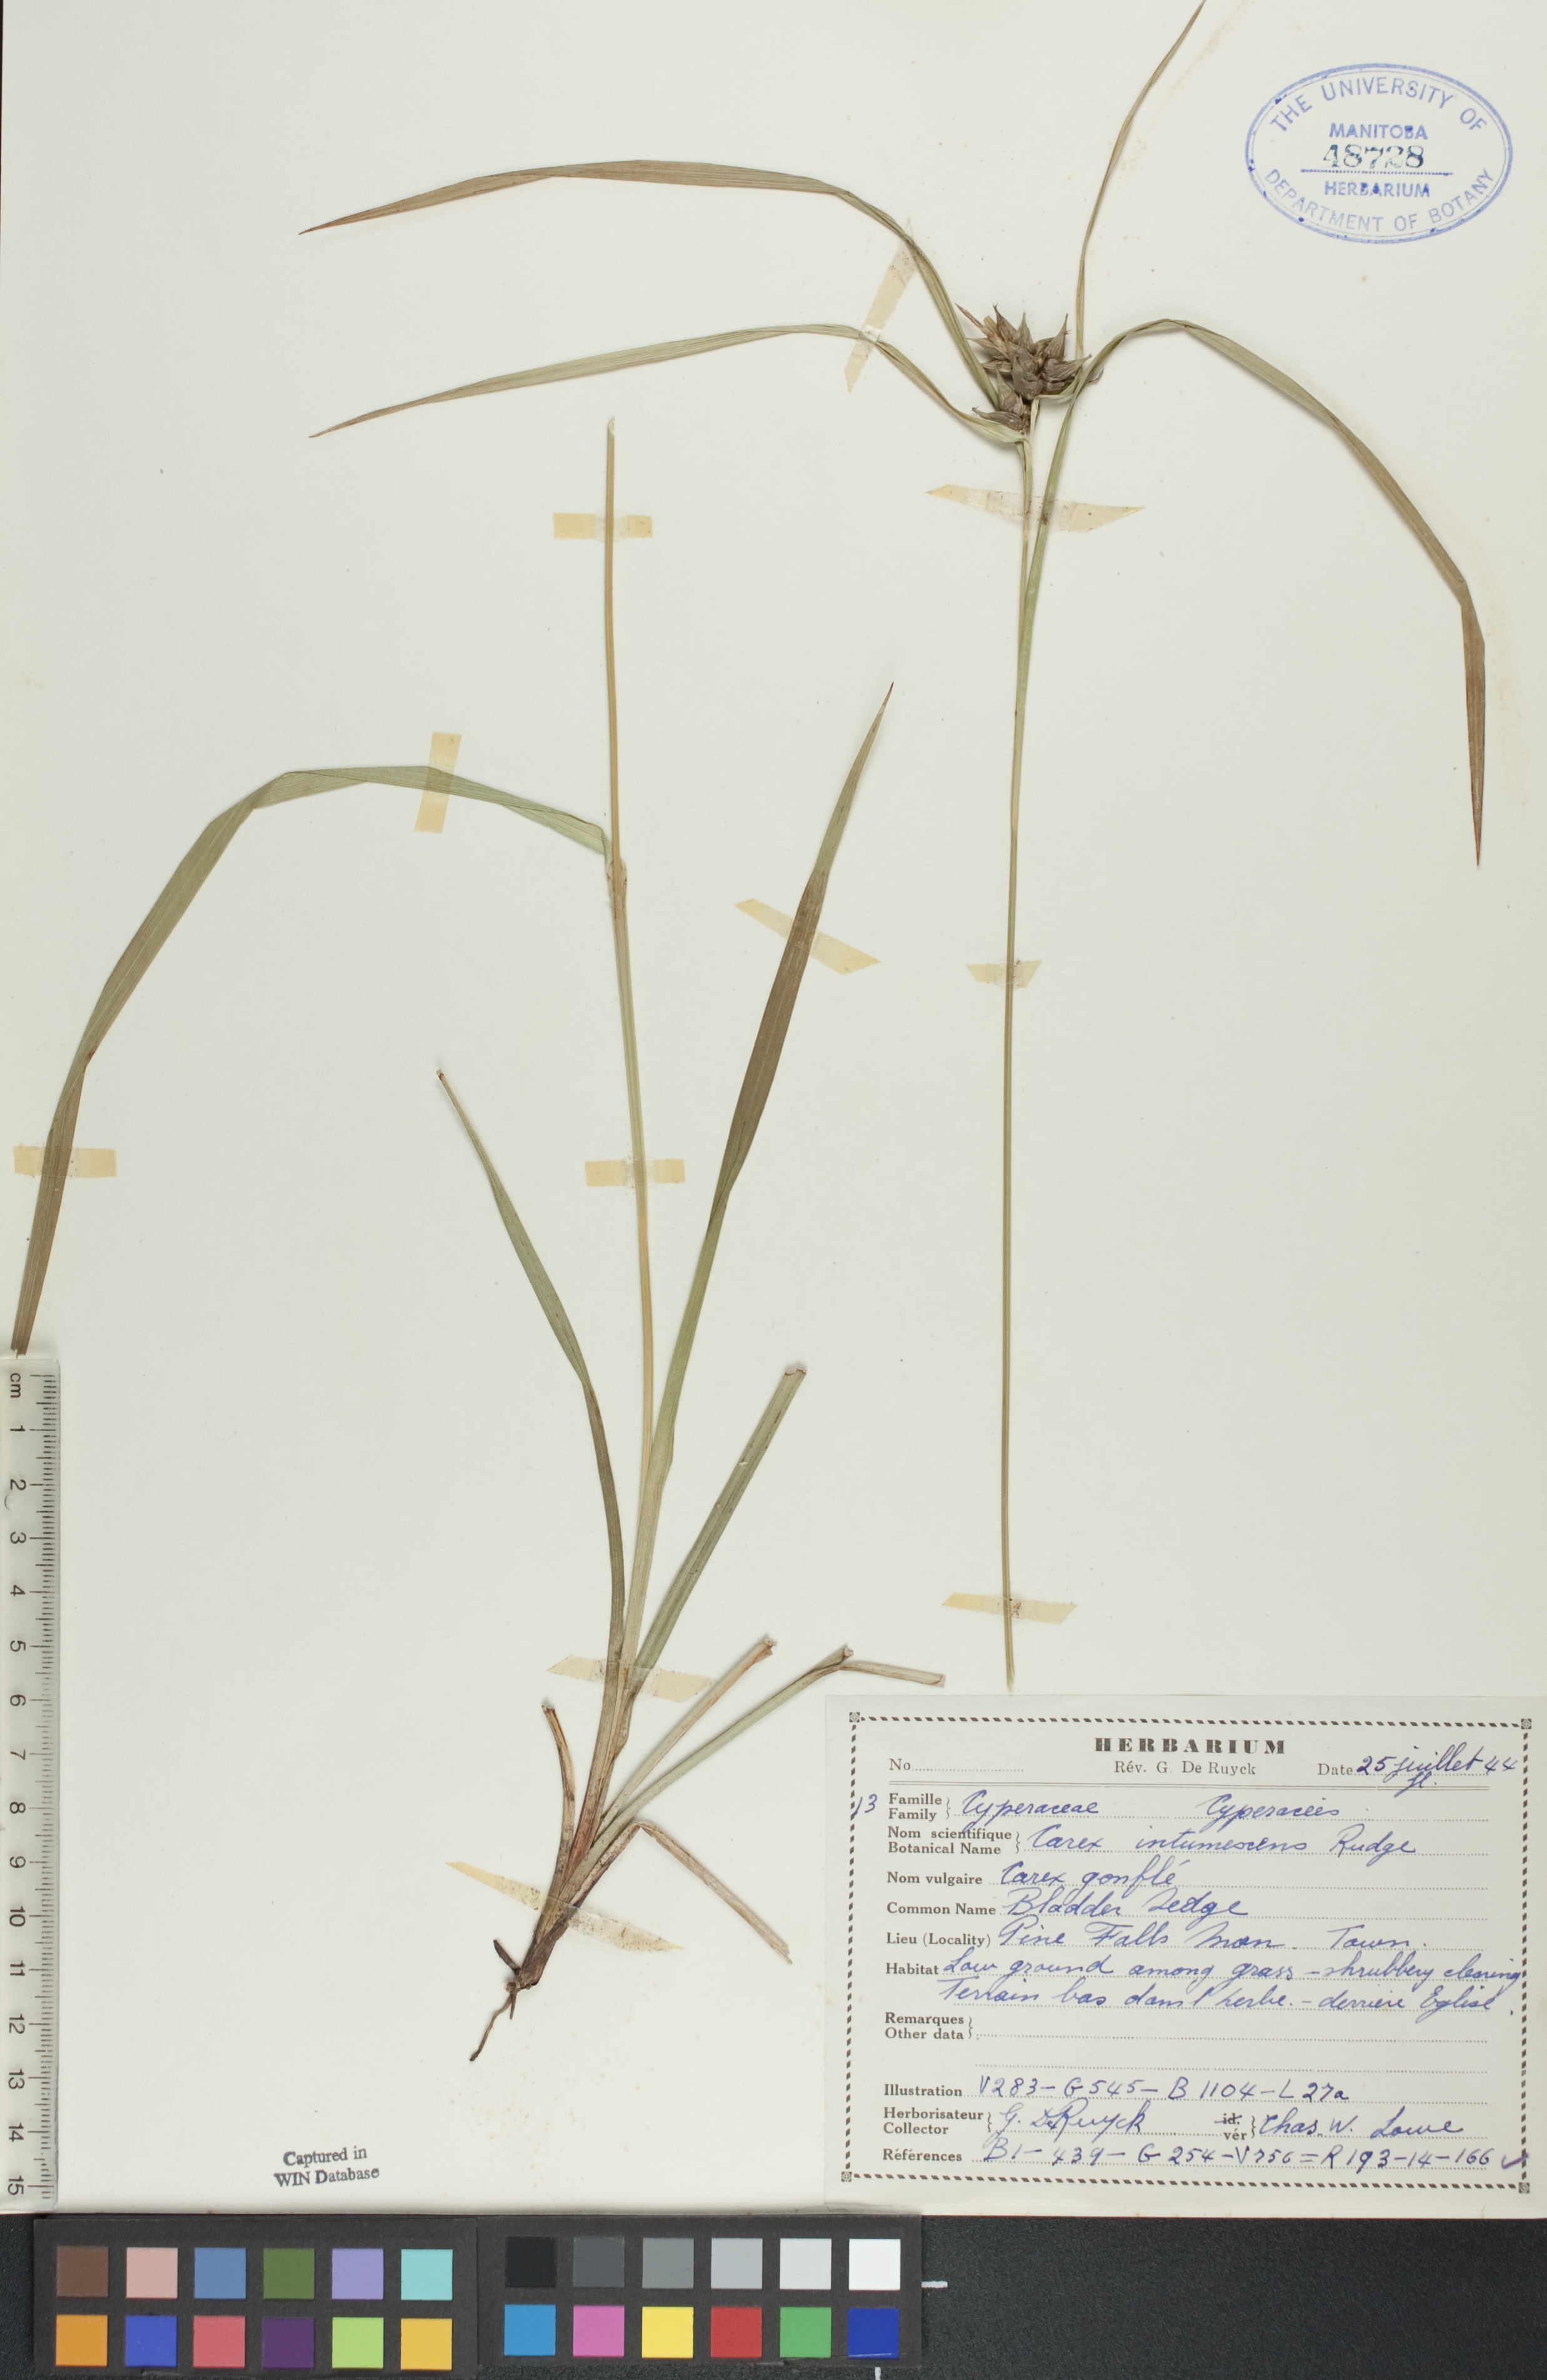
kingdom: Plantae
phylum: Tracheophyta
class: Liliopsida
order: Poales
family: Cyperaceae
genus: Carex
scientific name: Carex intumescens
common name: Greater bladder sedge
